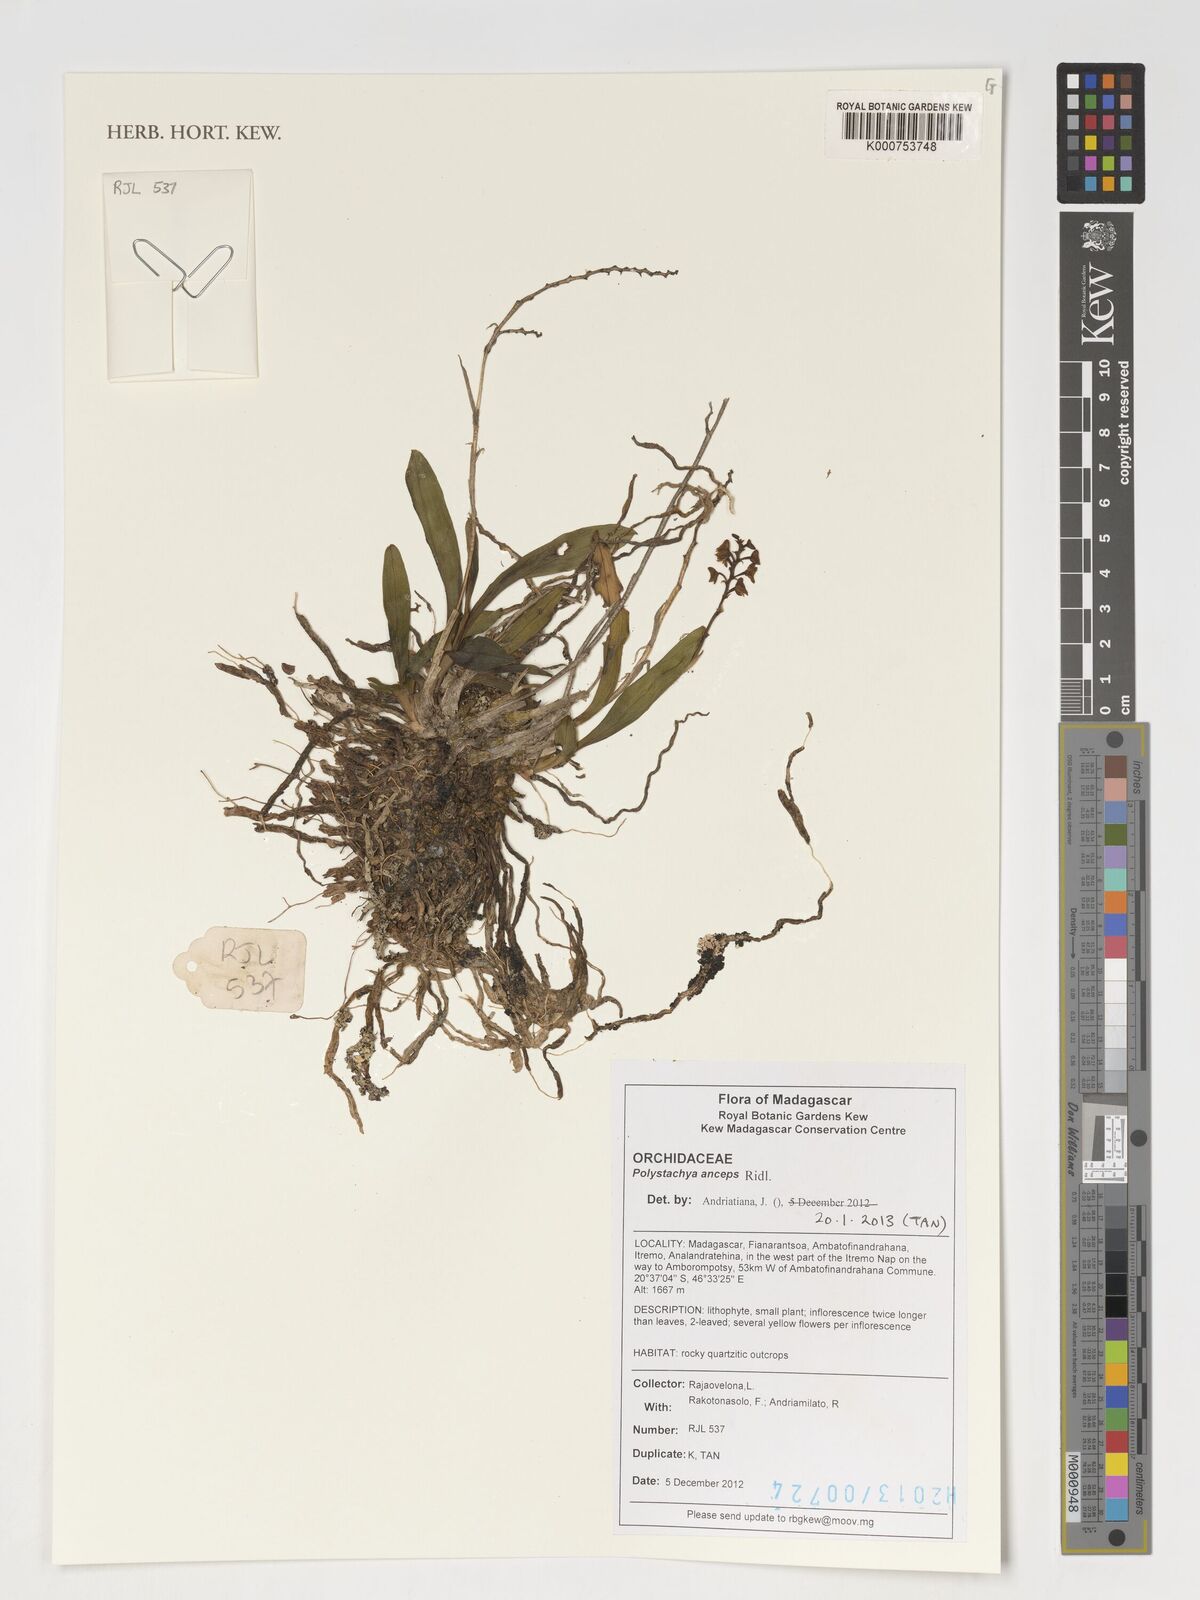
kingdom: Plantae
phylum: Tracheophyta
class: Liliopsida
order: Asparagales
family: Orchidaceae
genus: Polystachya
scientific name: Polystachya anceps
